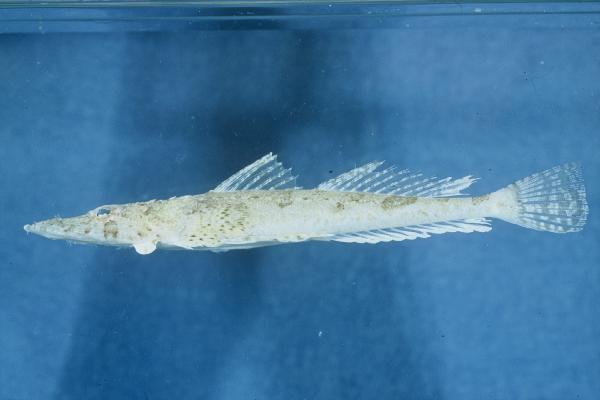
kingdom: Animalia
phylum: Chordata
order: Scorpaeniformes
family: Platycephalidae
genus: Thysanophrys
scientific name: Thysanophrys chiltonae
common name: Longsnout flathead
